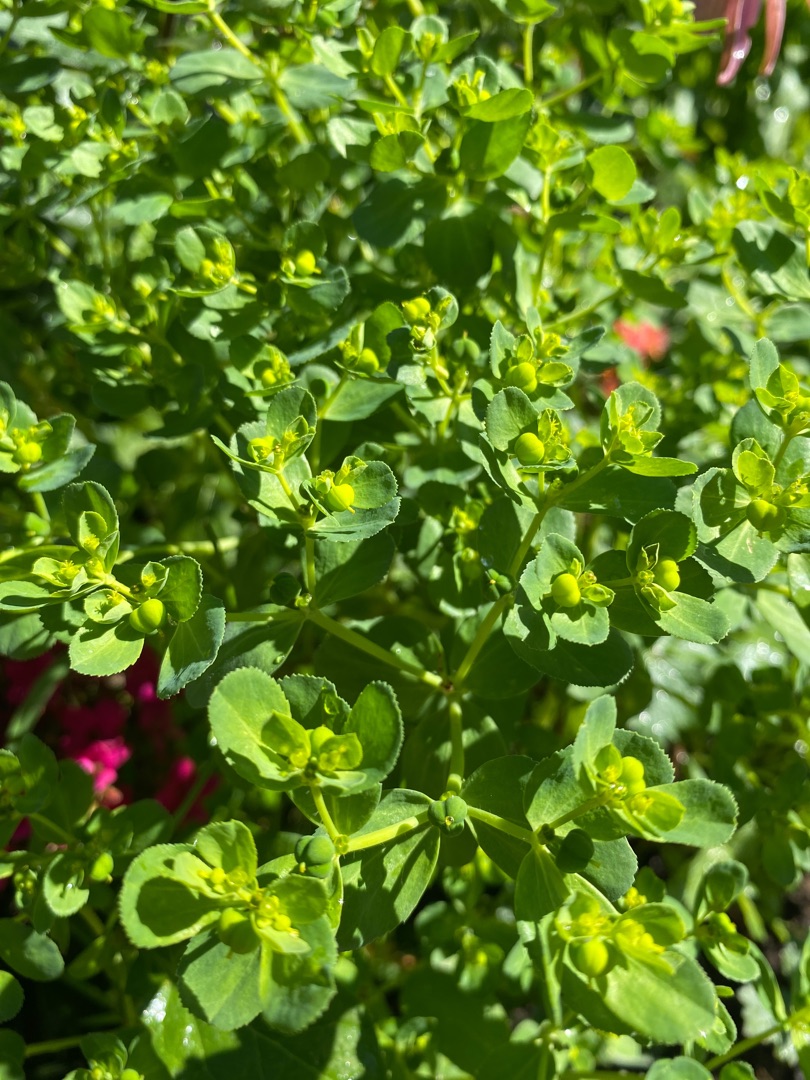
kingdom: Plantae
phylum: Tracheophyta
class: Magnoliopsida
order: Malpighiales
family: Euphorbiaceae
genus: Euphorbia
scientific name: Euphorbia helioscopia
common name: Skærm-vortemælk
